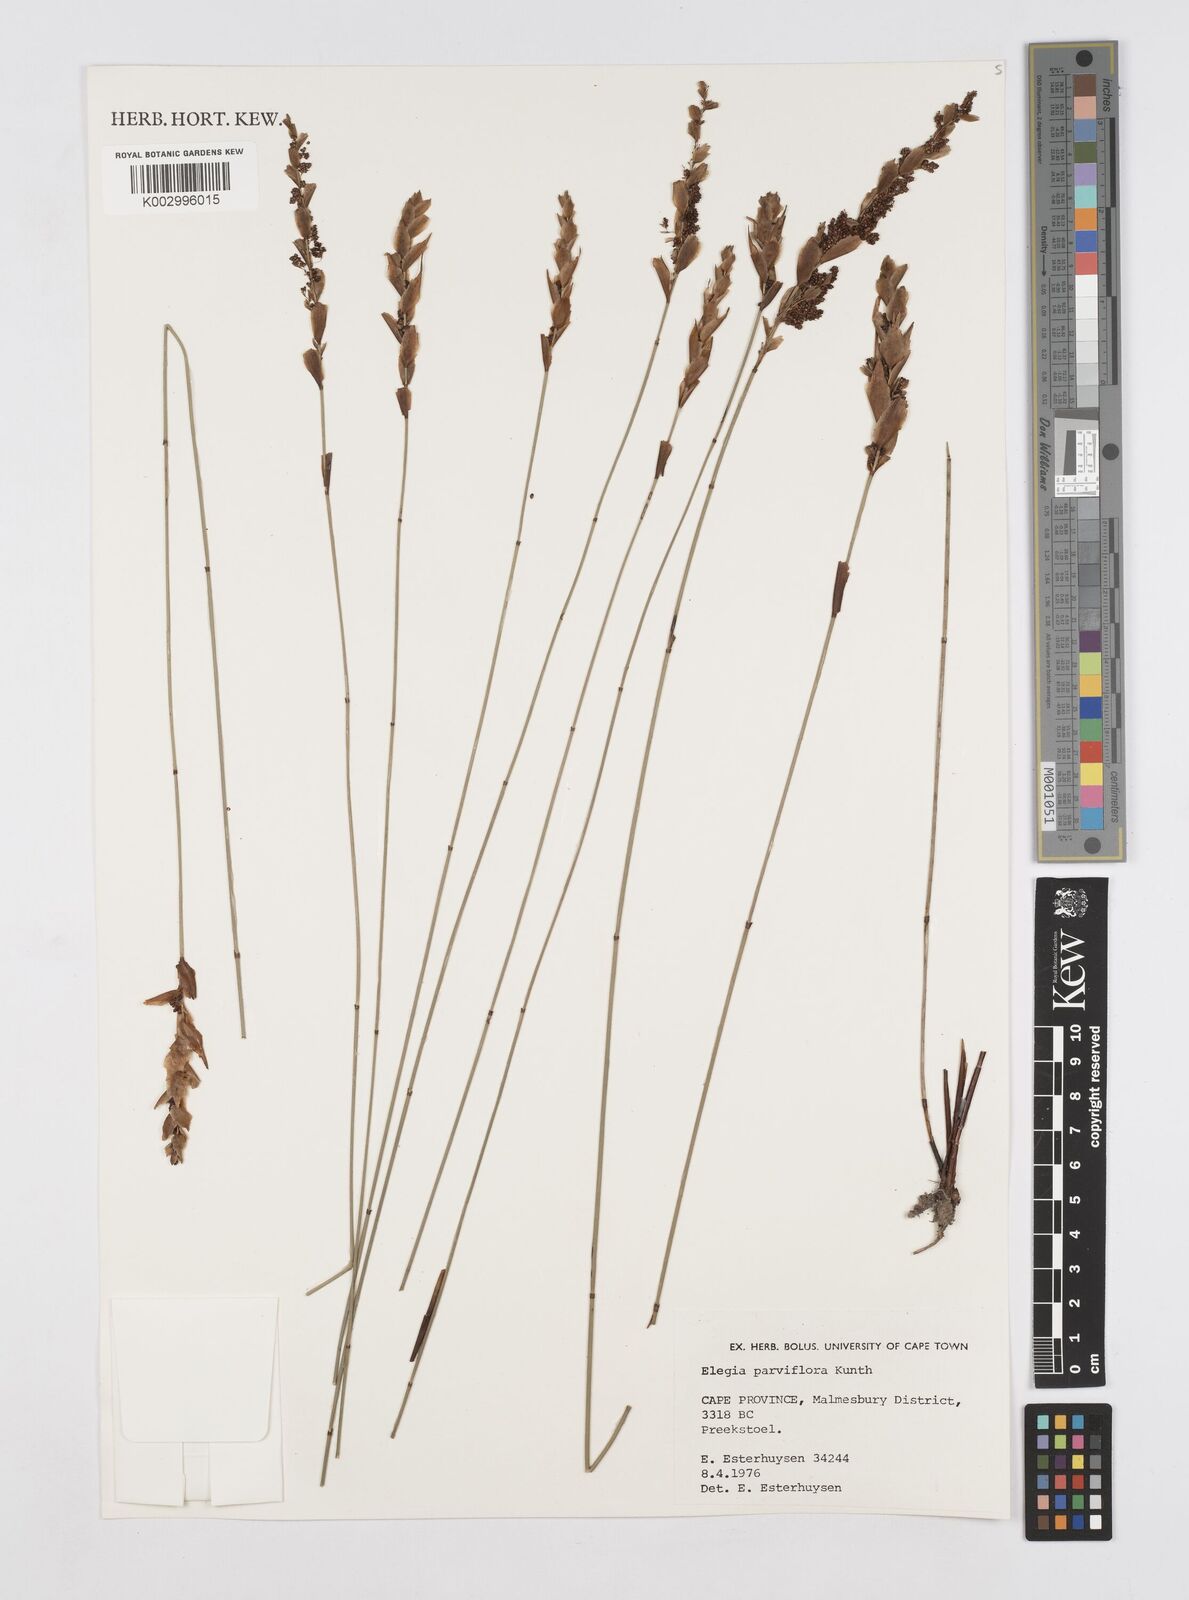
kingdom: Plantae
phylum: Tracheophyta
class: Liliopsida
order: Poales
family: Restionaceae
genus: Cannomois
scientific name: Cannomois parviflora
